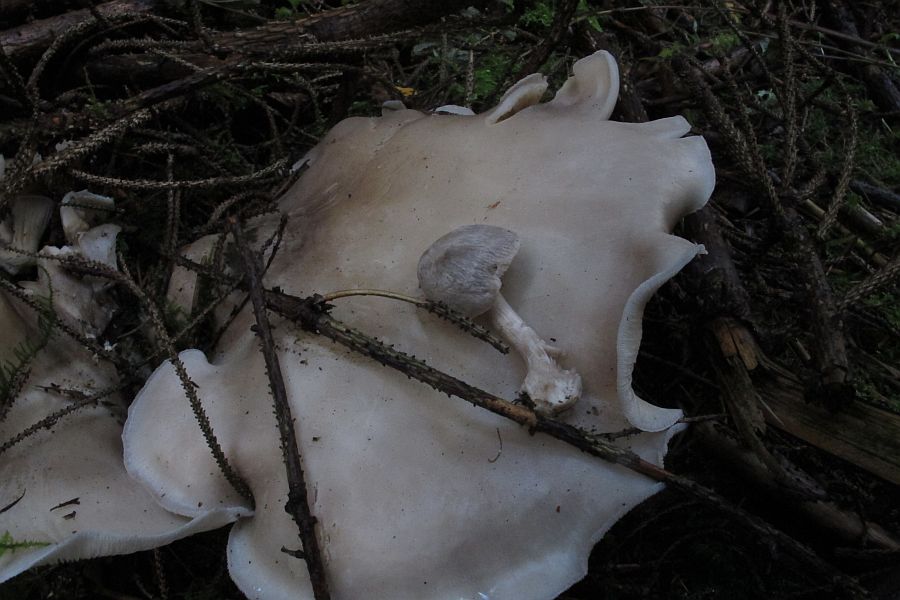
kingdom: Fungi
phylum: Basidiomycota
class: Agaricomycetes
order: Agaricales
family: Pluteaceae
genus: Volvariella
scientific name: Volvariella surrecta
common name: snyltende posesvamp
